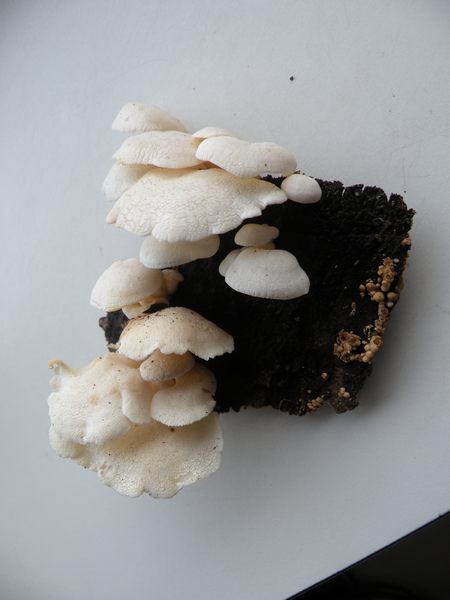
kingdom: Fungi
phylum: Basidiomycota
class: Agaricomycetes
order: Agaricales
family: Mycenaceae
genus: Panellus
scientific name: Panellus stipticus
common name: Bitter oysterling
